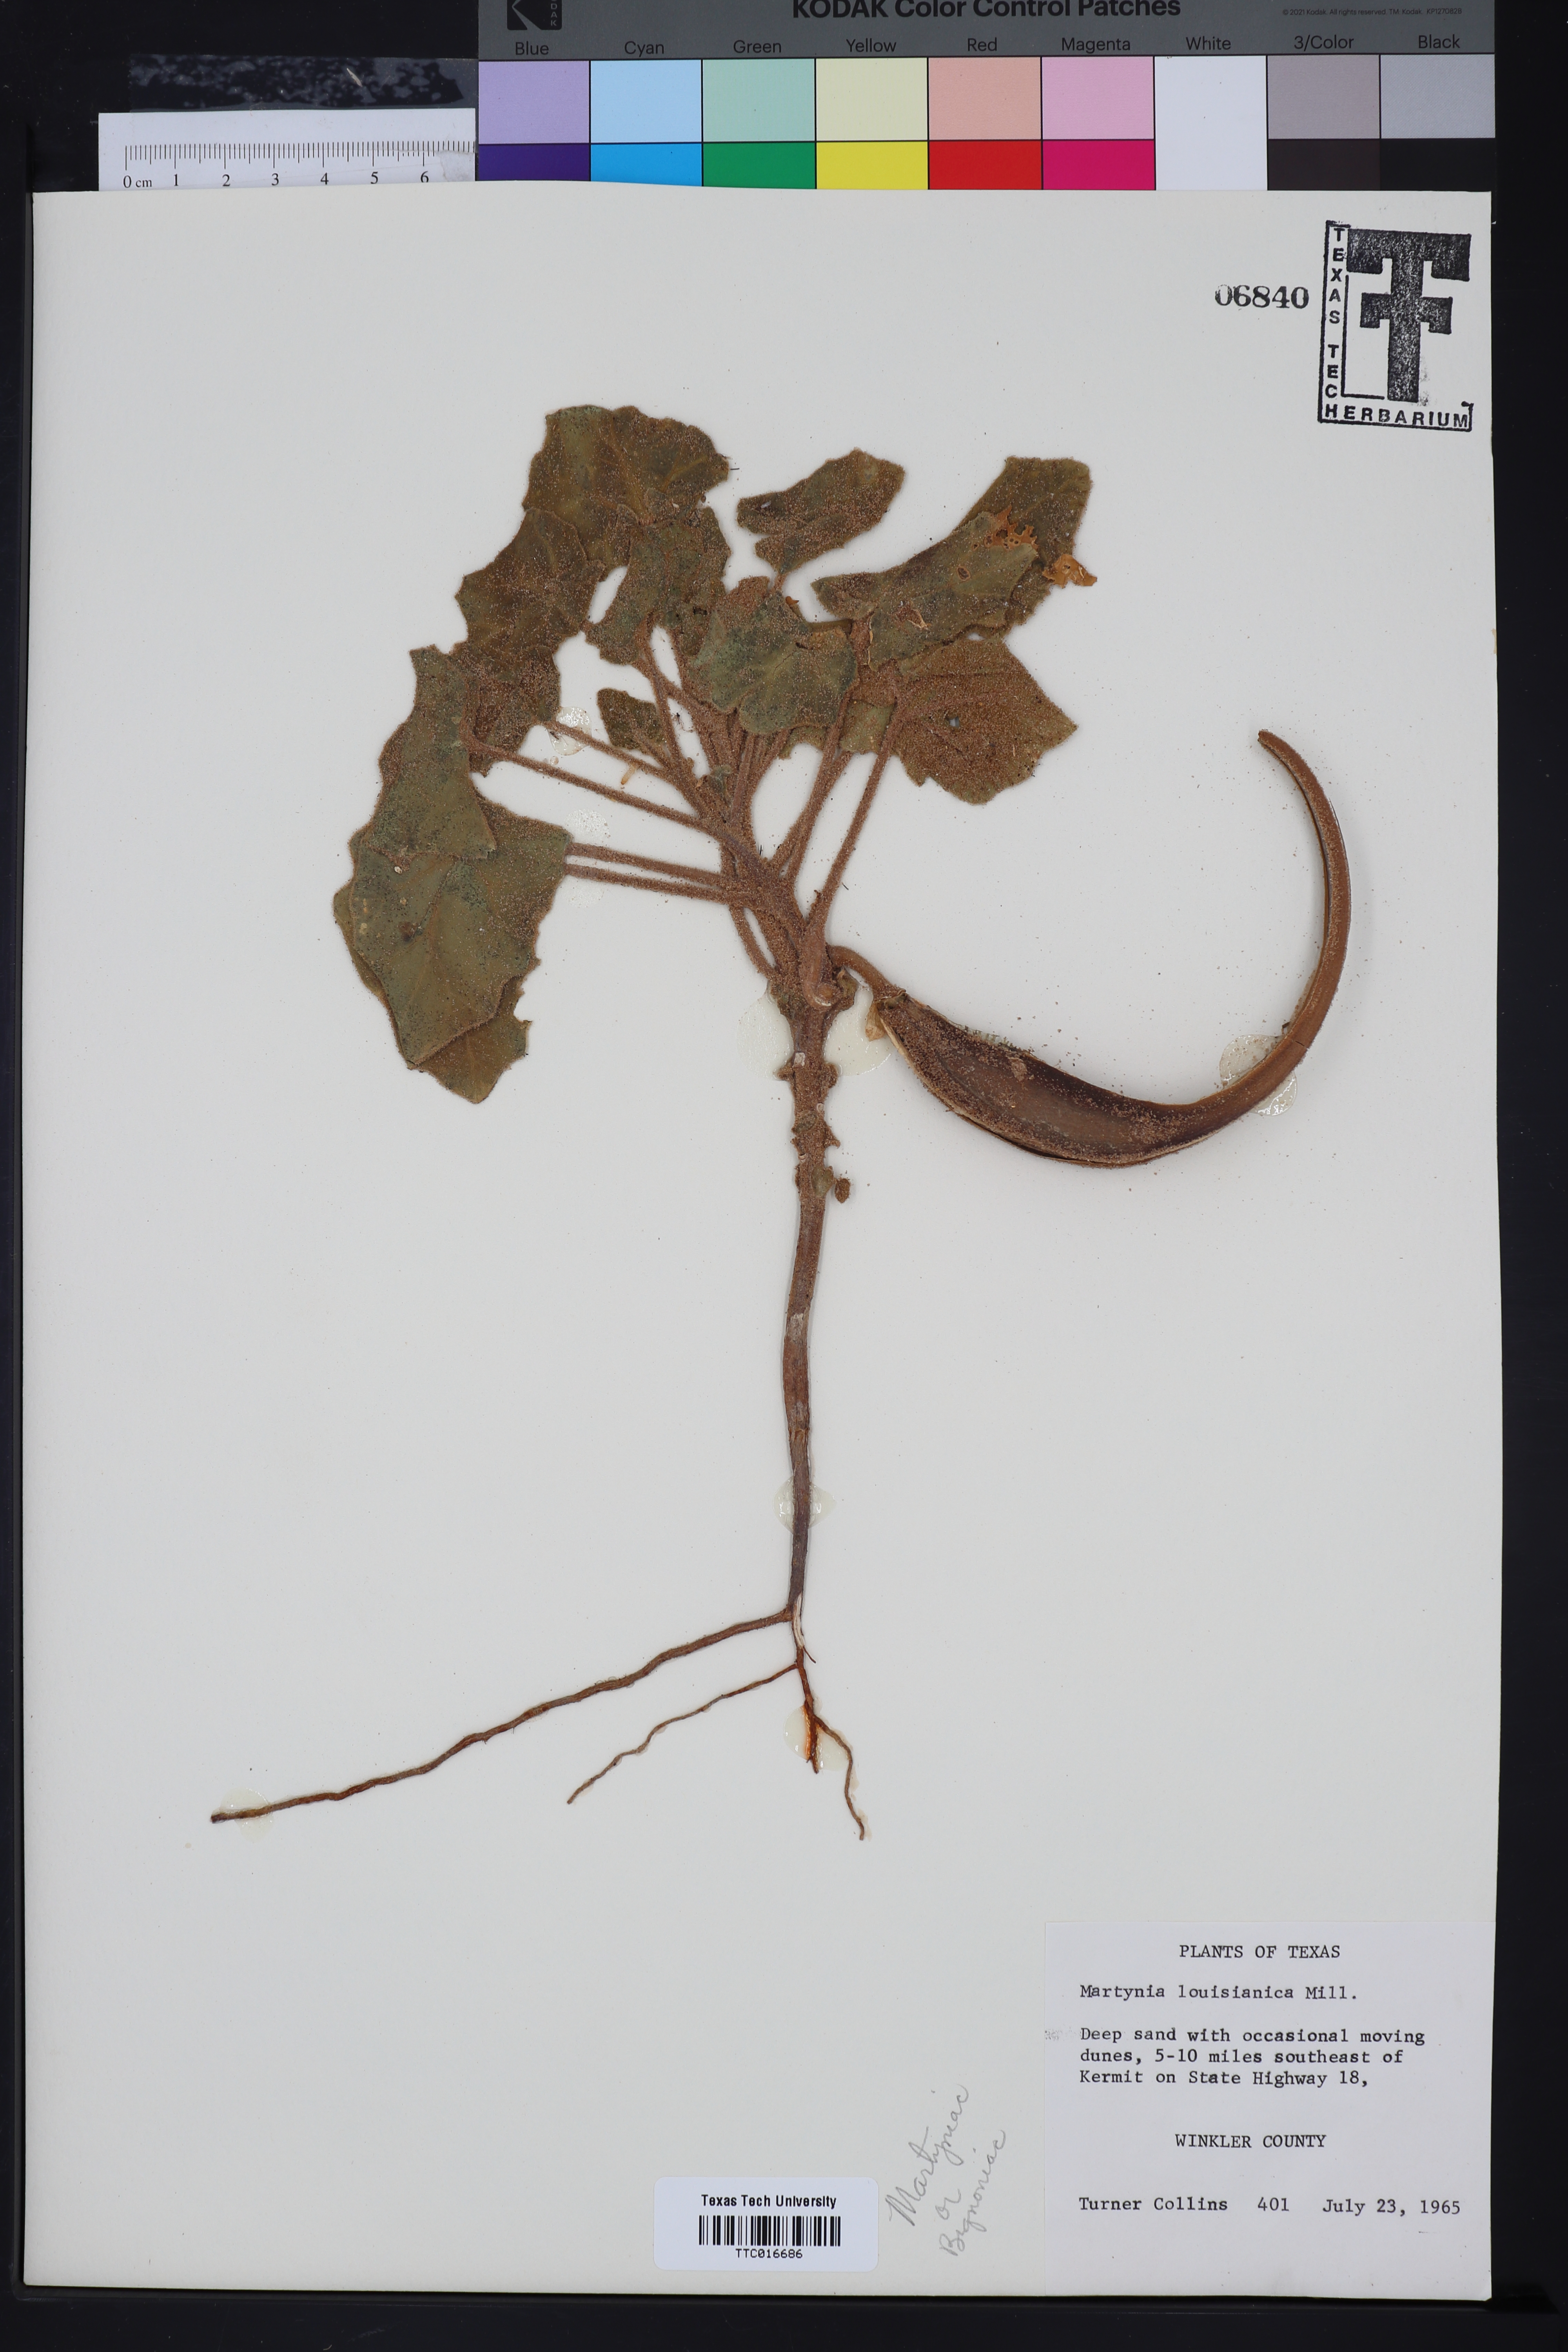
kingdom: Plantae
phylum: Tracheophyta
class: Magnoliopsida
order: Lamiales
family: Martyniaceae
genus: Proboscidea
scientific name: Proboscidea louisianica
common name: Elephant tusks
